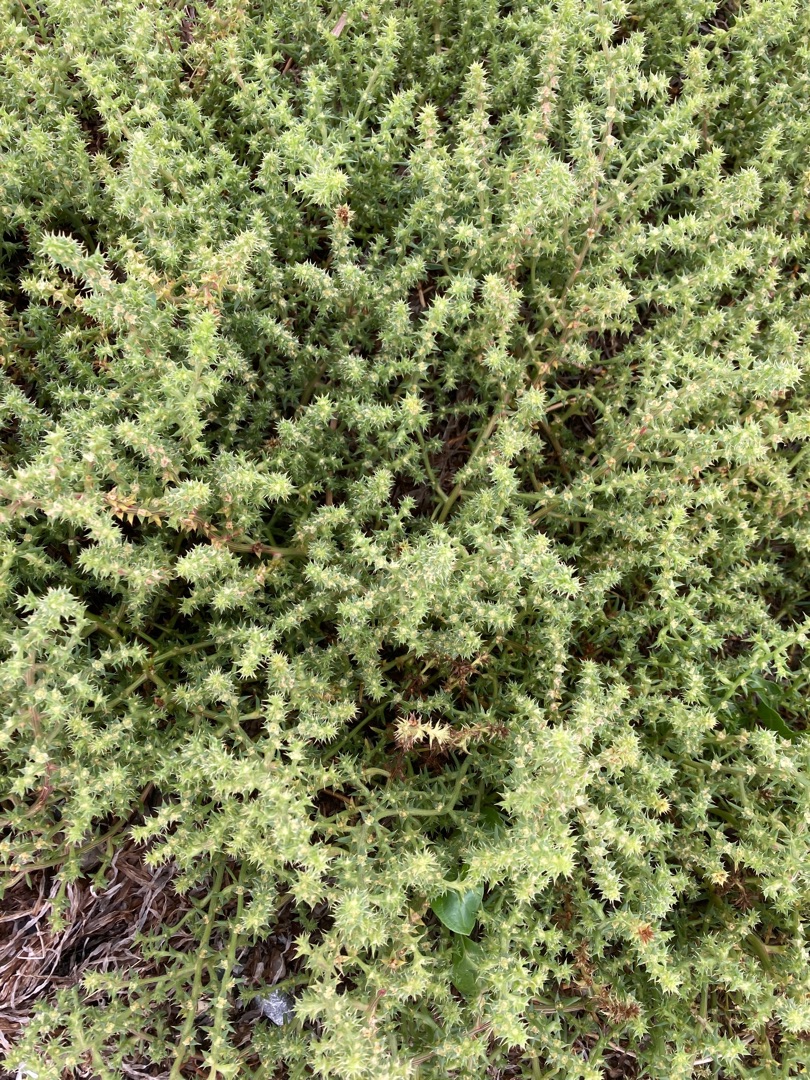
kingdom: Plantae
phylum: Tracheophyta
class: Magnoliopsida
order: Caryophyllales
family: Amaranthaceae
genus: Salsola
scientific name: Salsola kali
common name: Sodaurt
